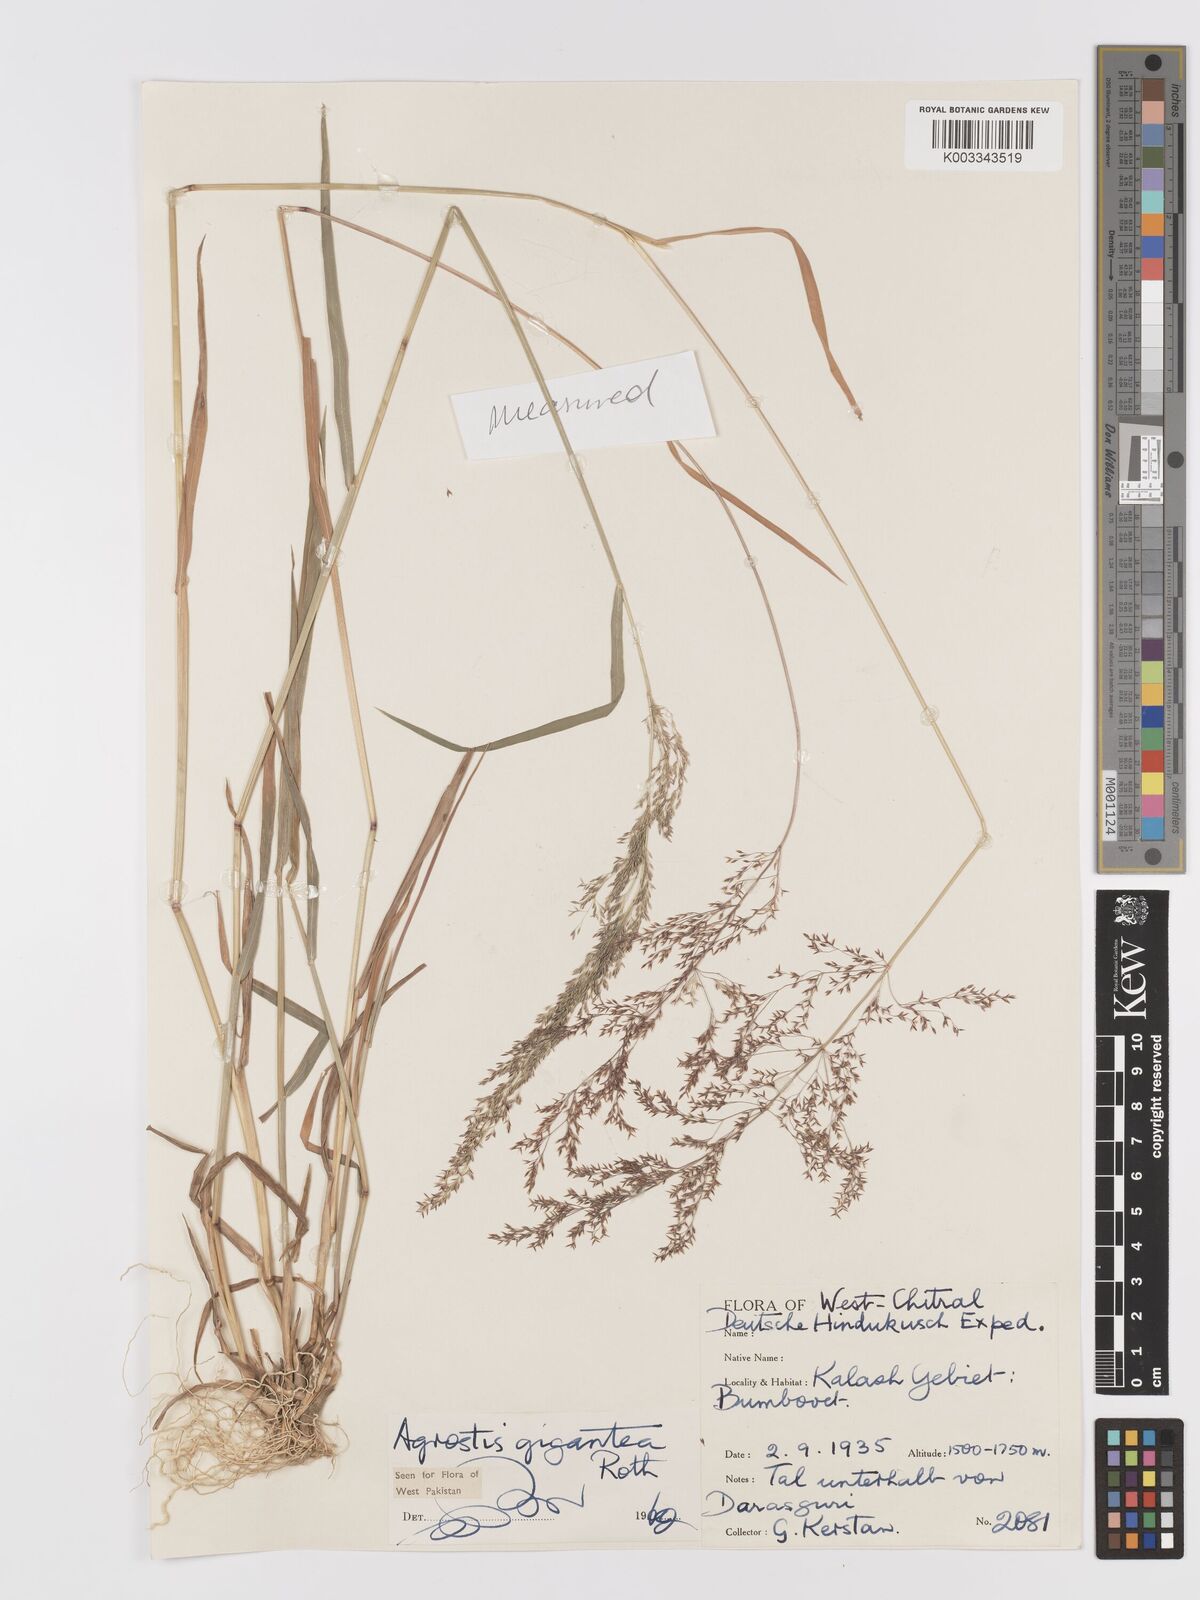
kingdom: Plantae
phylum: Tracheophyta
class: Liliopsida
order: Poales
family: Poaceae
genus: Agrostis
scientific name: Agrostis gigantea
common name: Black bent
